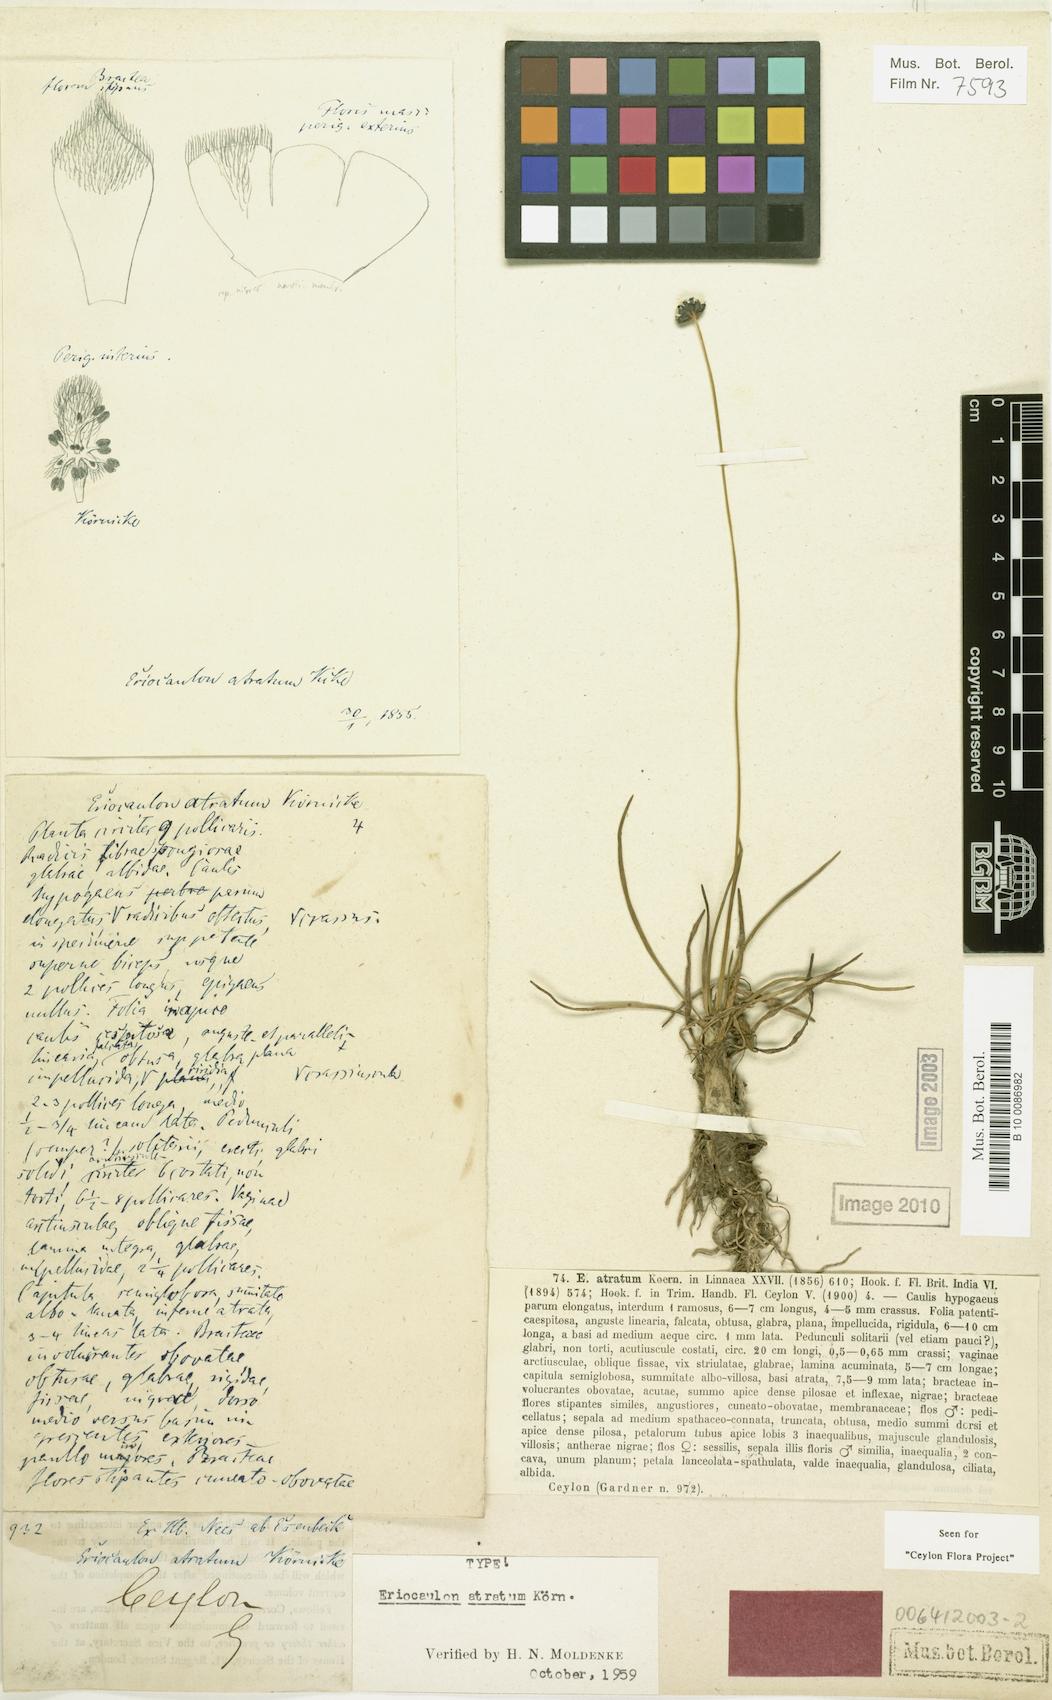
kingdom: Plantae
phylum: Tracheophyta
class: Liliopsida
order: Poales
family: Eriocaulaceae
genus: Eriocaulon
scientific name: Eriocaulon atratum
